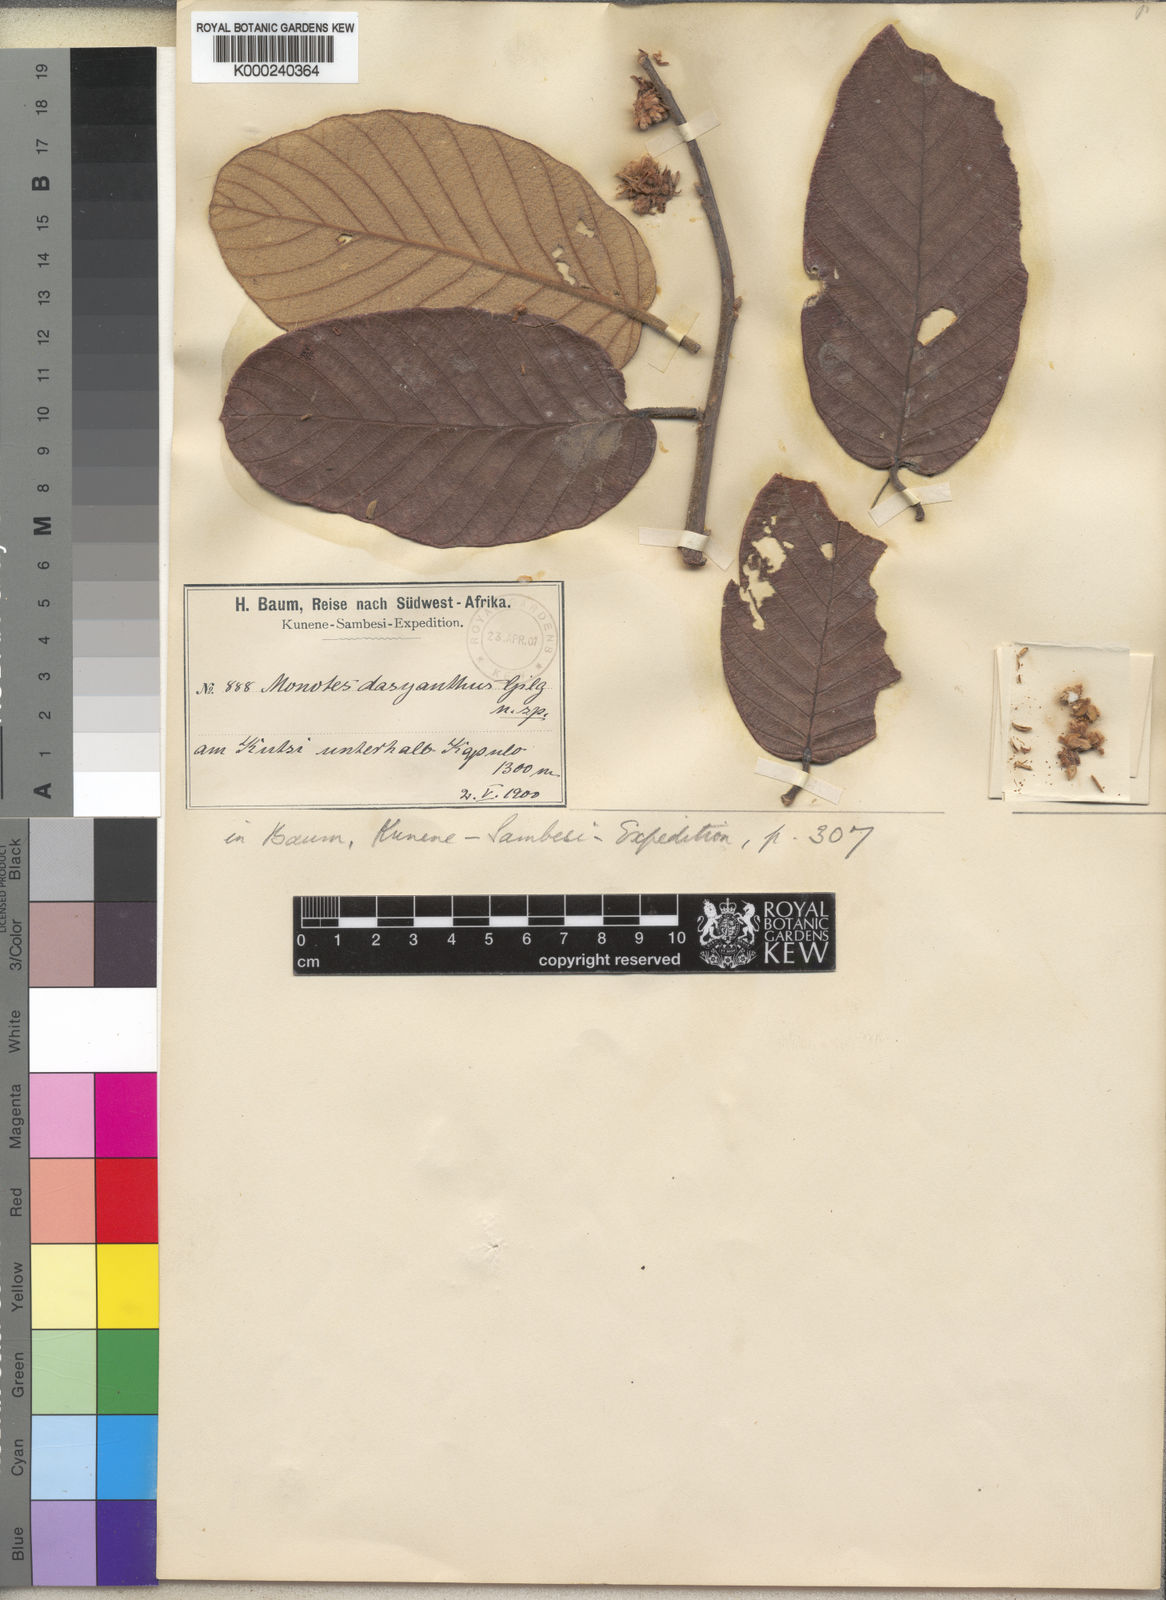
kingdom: Plantae
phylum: Tracheophyta
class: Magnoliopsida
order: Malvales
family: Dipterocarpaceae
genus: Monotes
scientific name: Monotes dasyanthus
